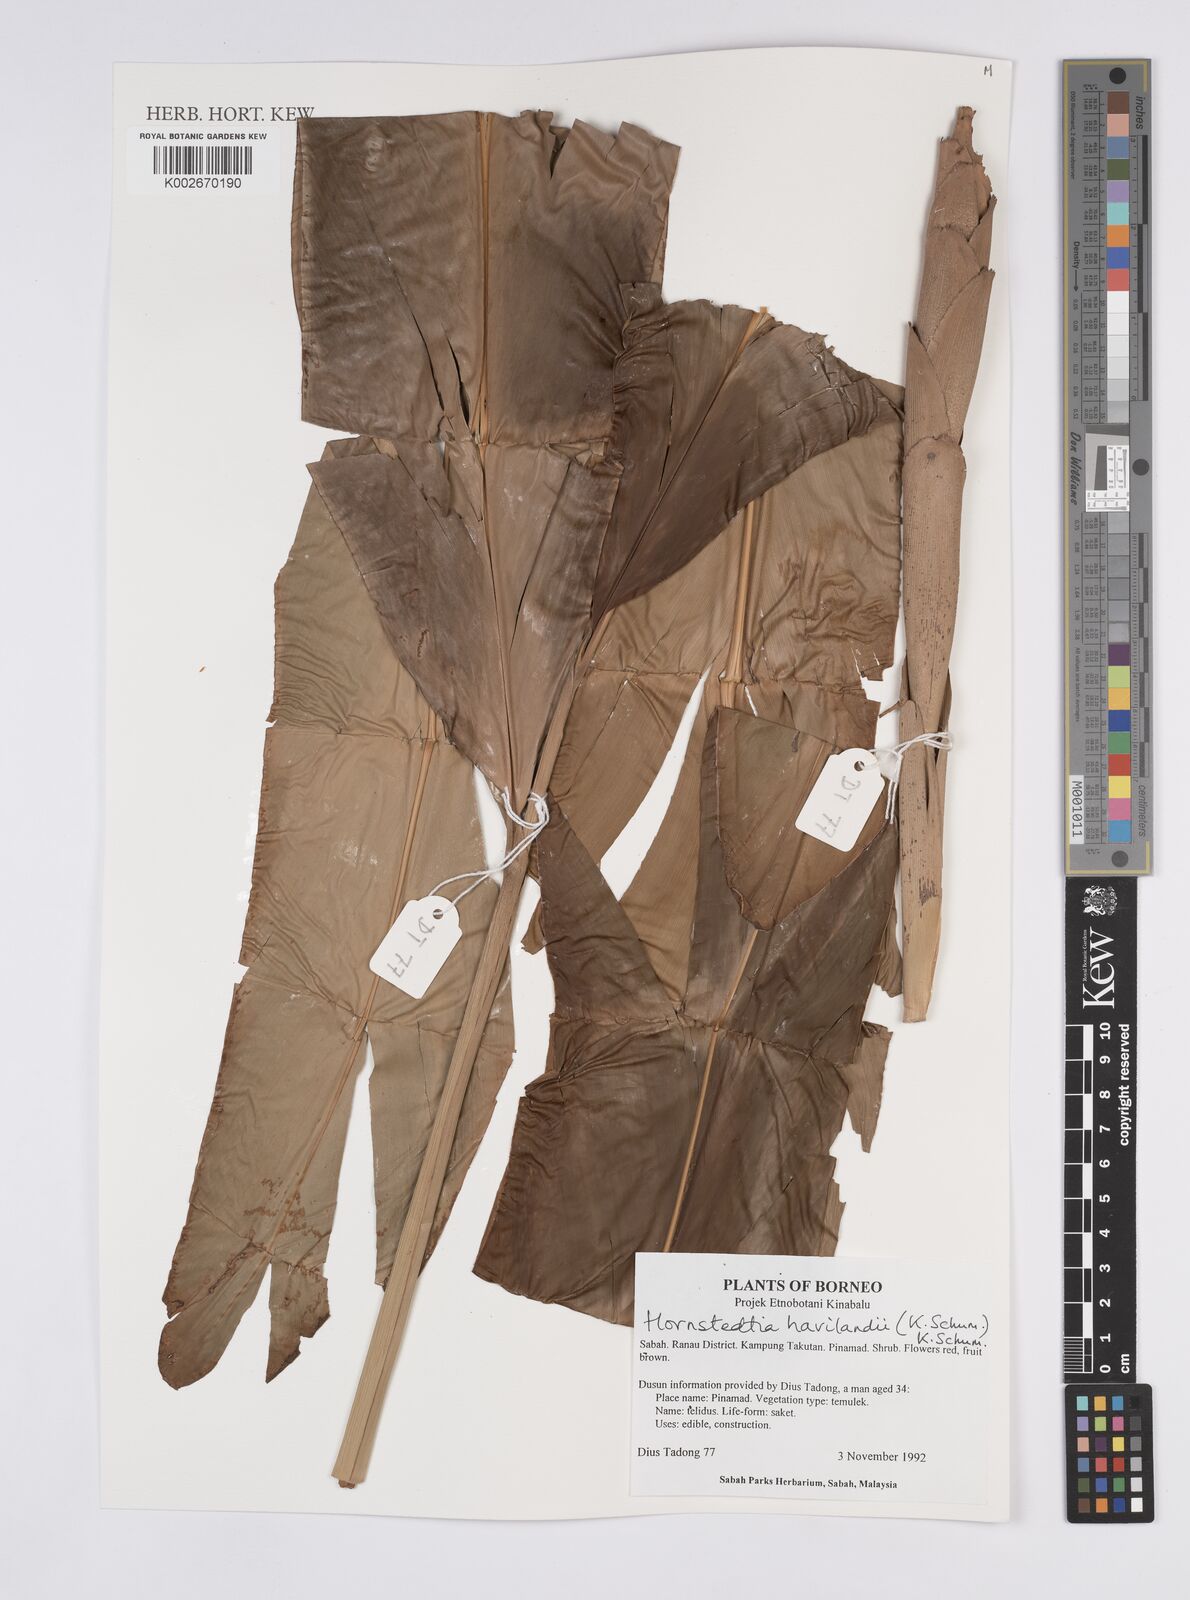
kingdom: Plantae
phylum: Tracheophyta
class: Liliopsida
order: Zingiberales
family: Zingiberaceae
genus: Hornstedtia
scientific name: Hornstedtia havilandii
